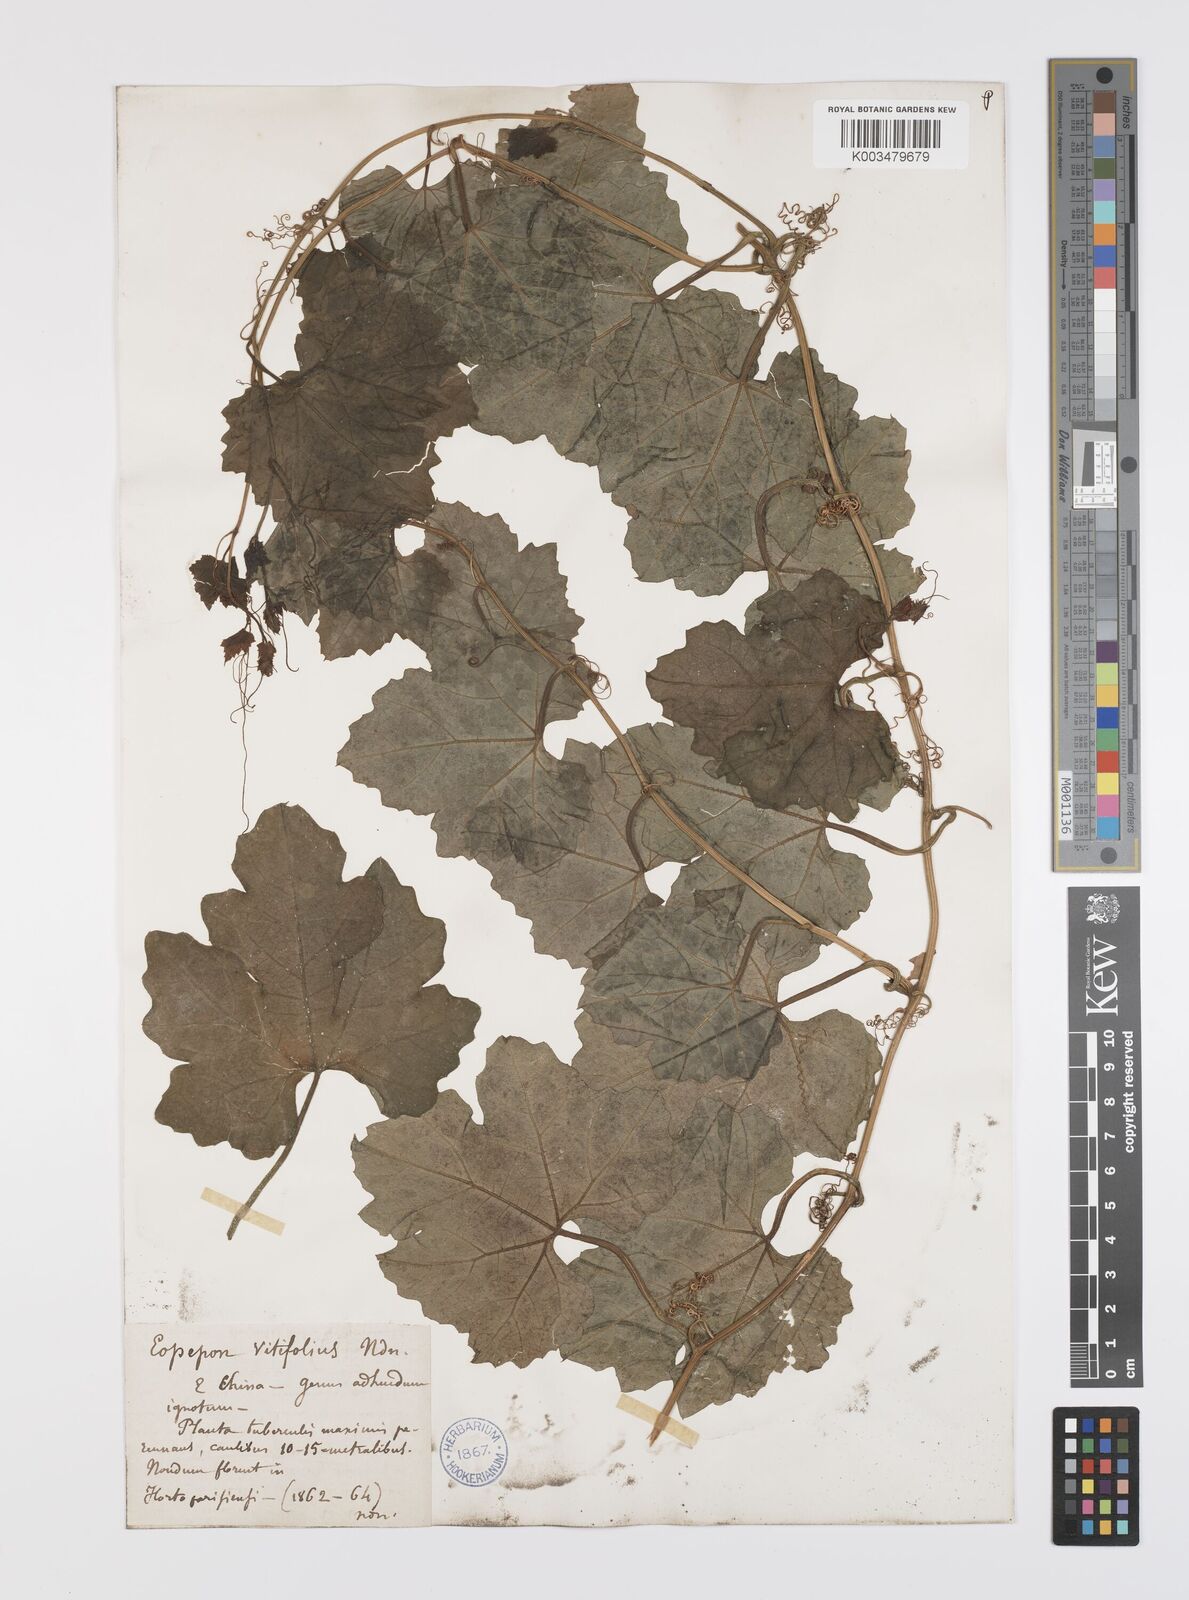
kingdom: Plantae
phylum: Tracheophyta
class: Magnoliopsida
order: Cucurbitales
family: Cucurbitaceae
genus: Trichosanthes
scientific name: Trichosanthes kirilowii
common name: Chinese-cucumber
